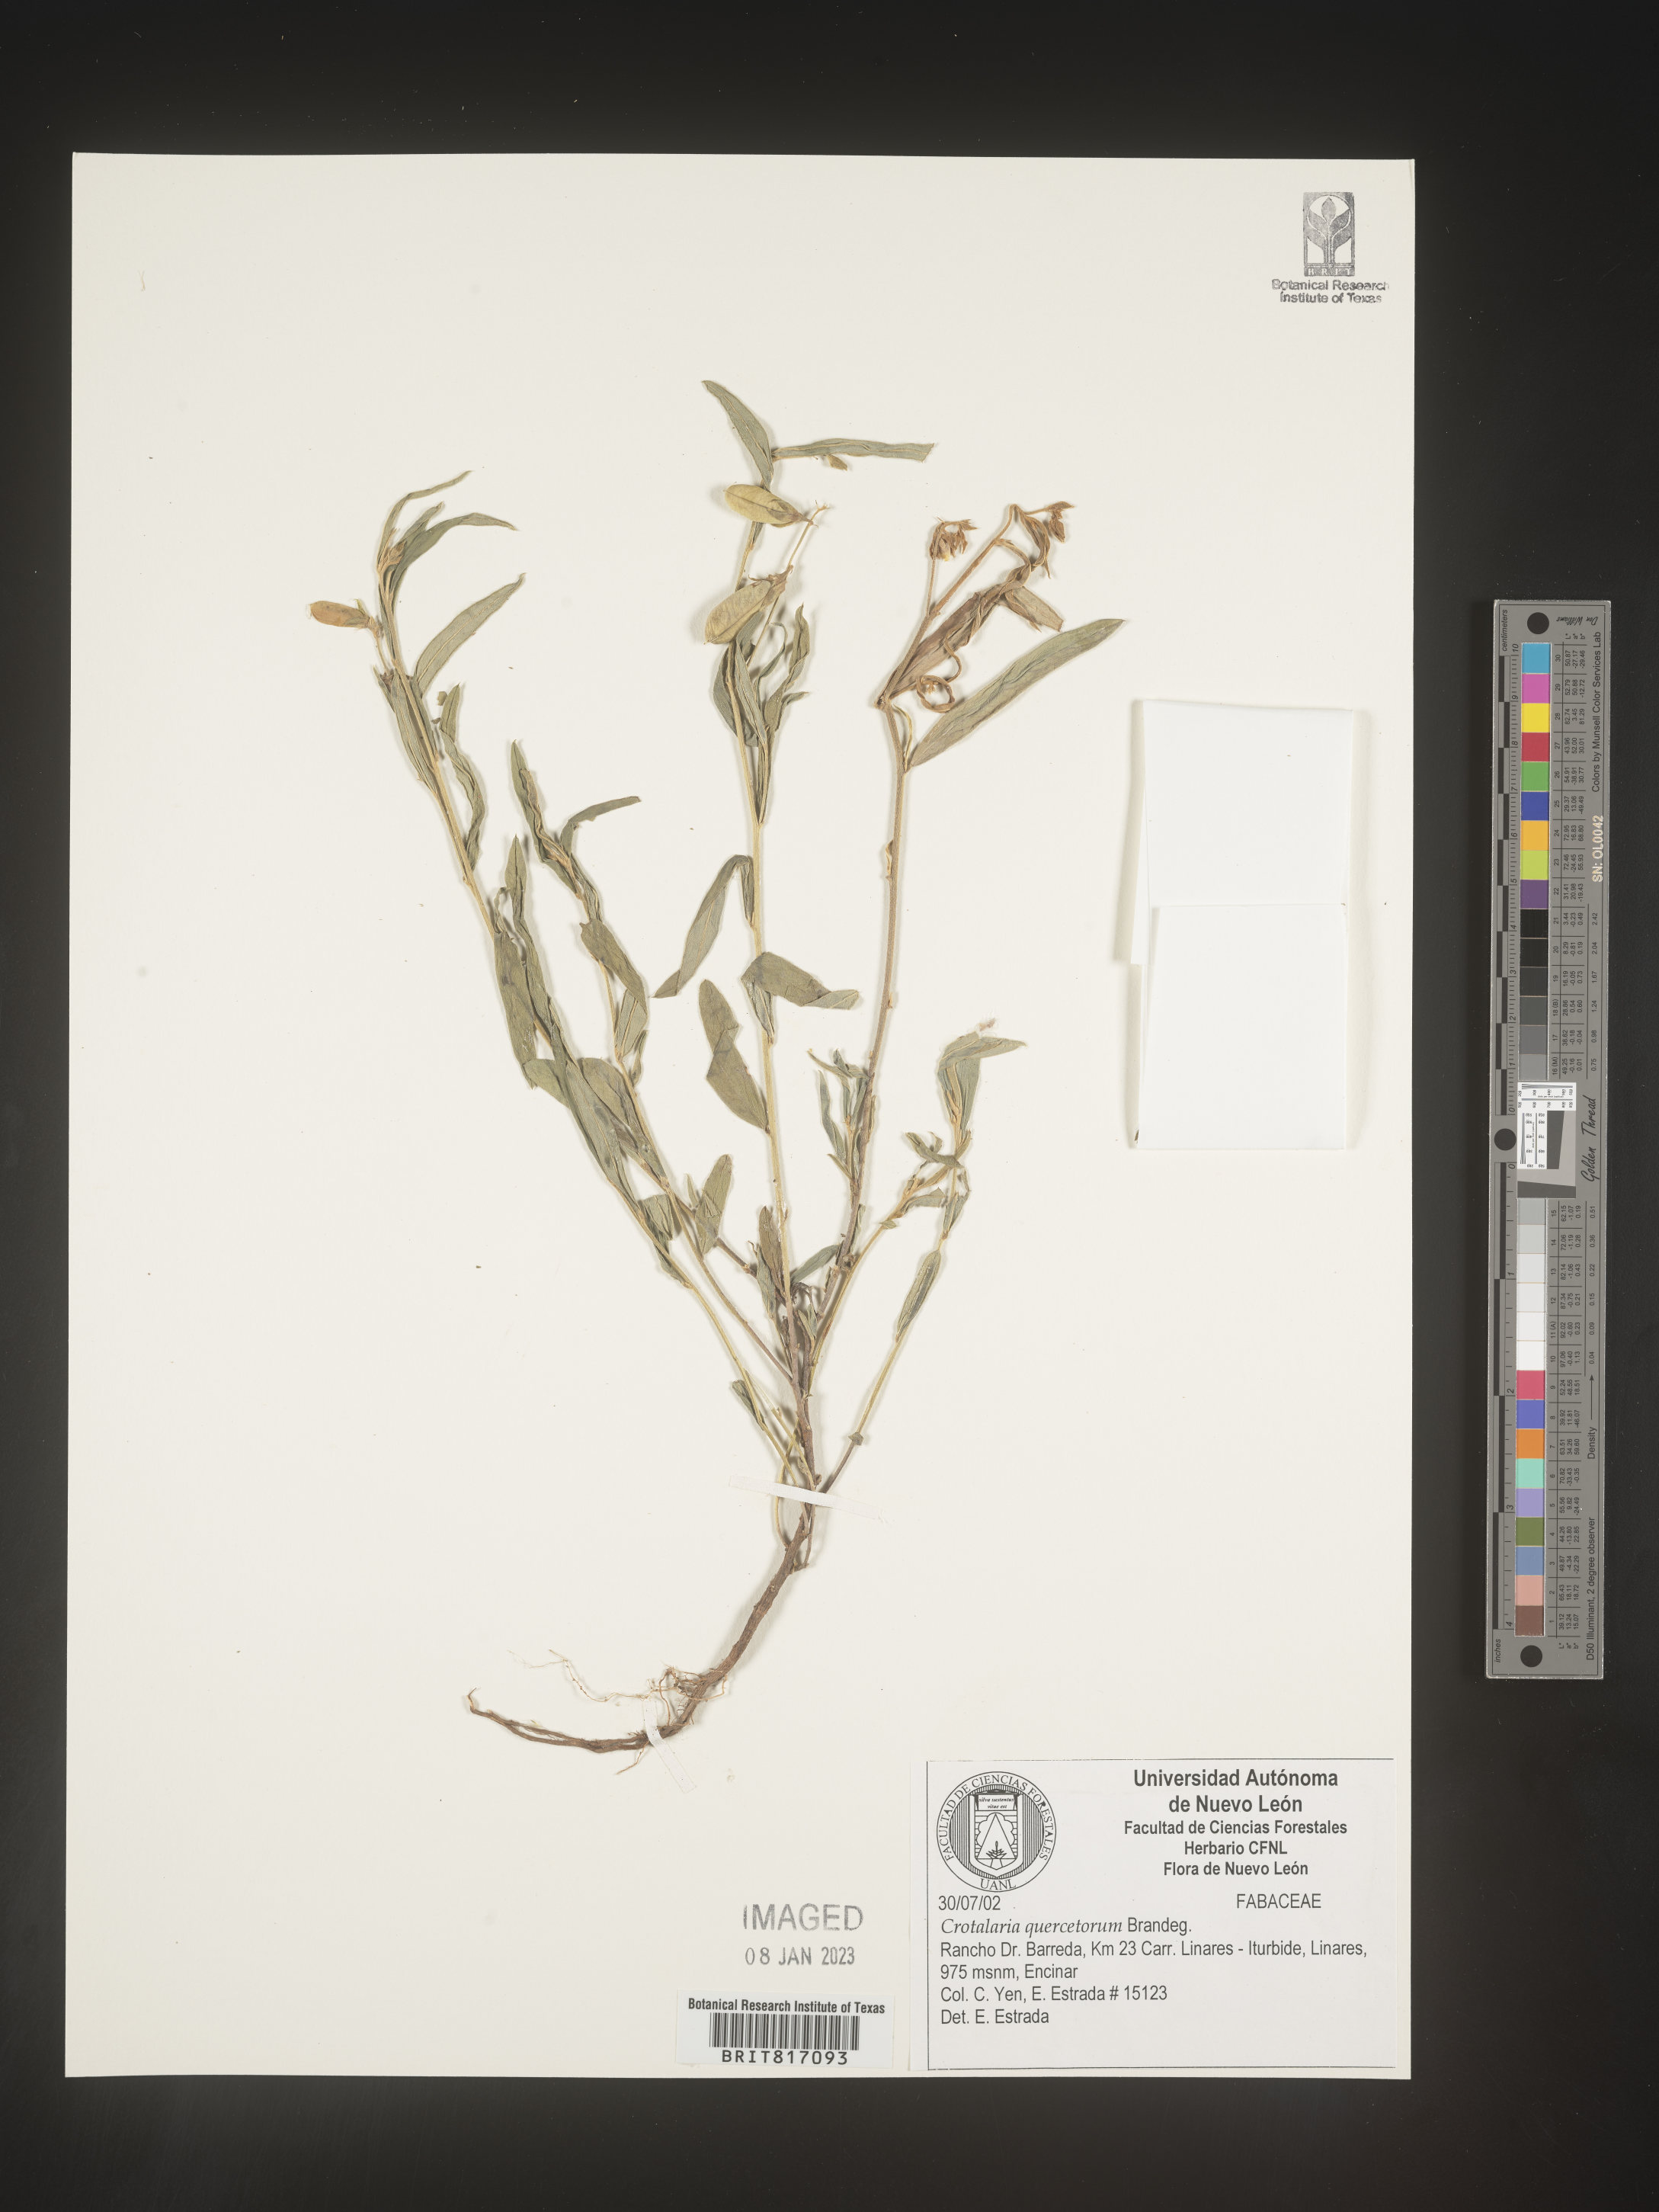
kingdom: Plantae
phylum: Tracheophyta
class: Magnoliopsida
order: Fabales
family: Fabaceae
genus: Crotalaria
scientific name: Crotalaria
